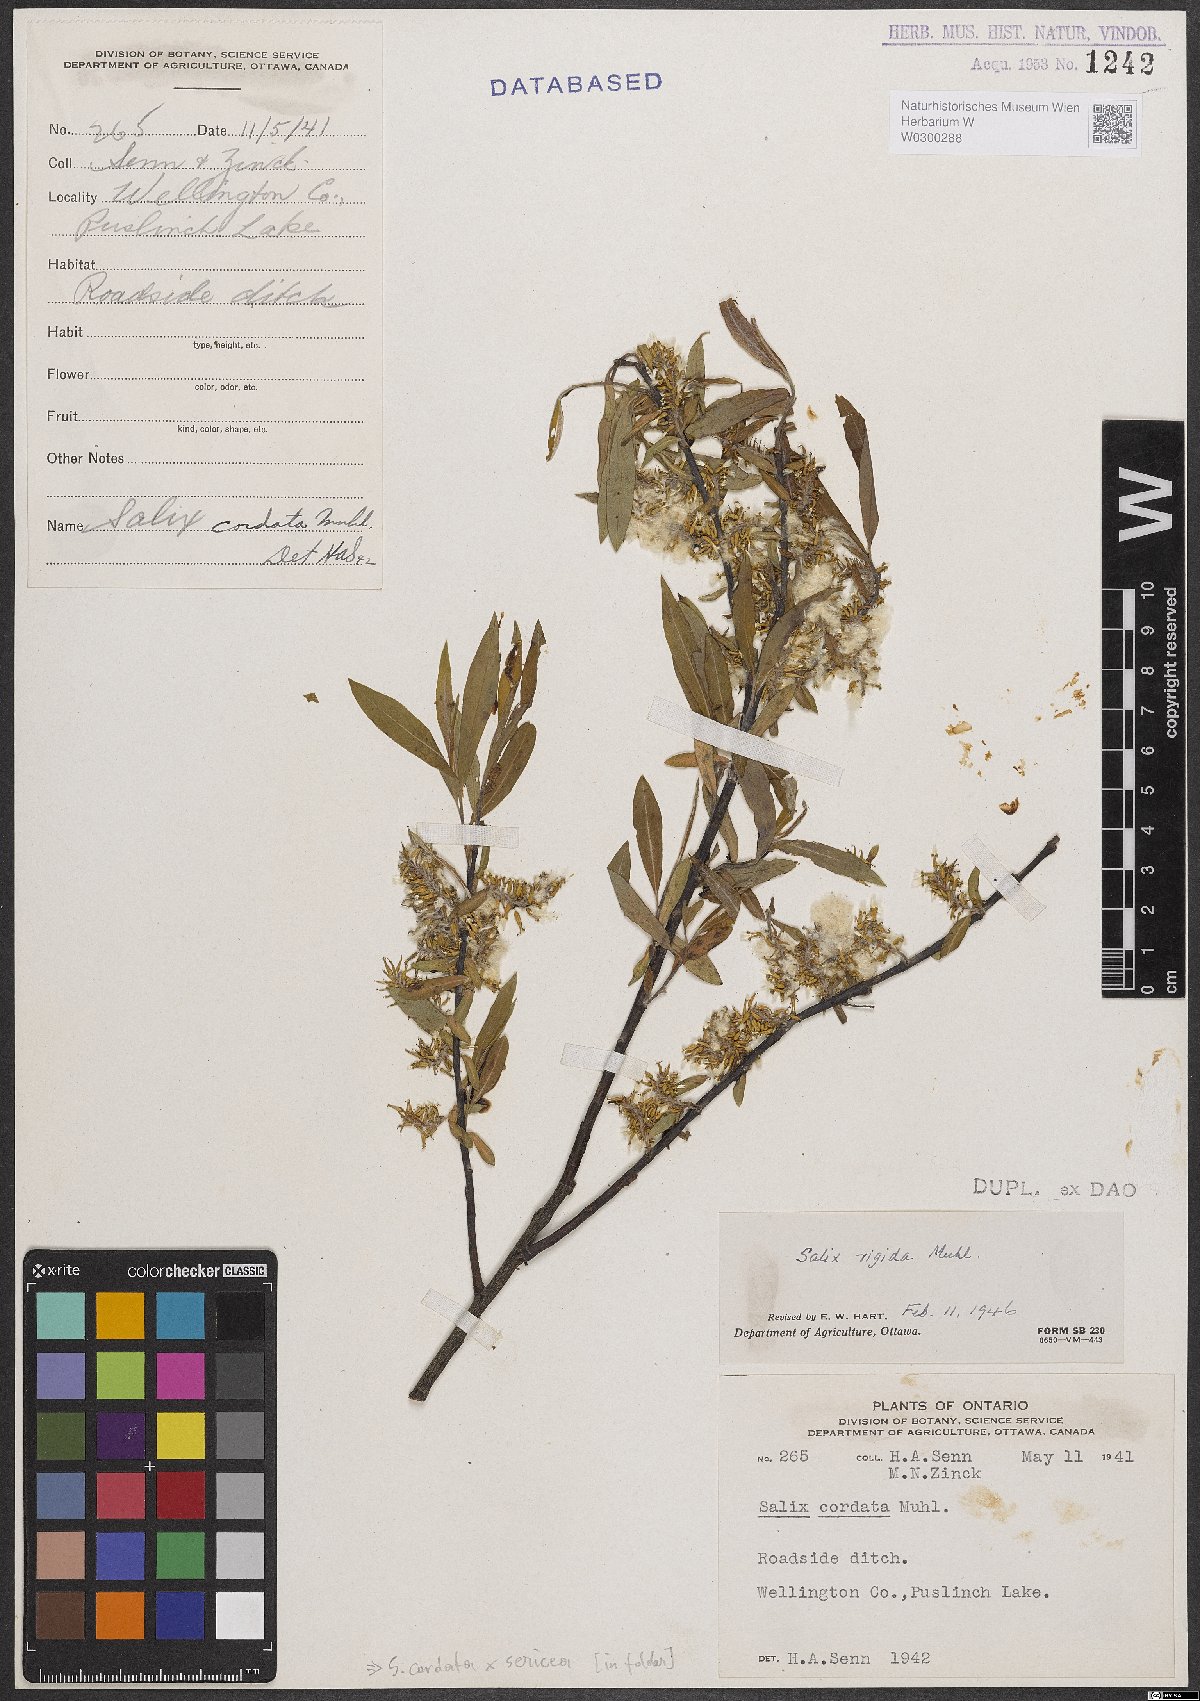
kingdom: Plantae
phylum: Tracheophyta
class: Magnoliopsida
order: Malpighiales
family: Salicaceae
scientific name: Salicaceae
